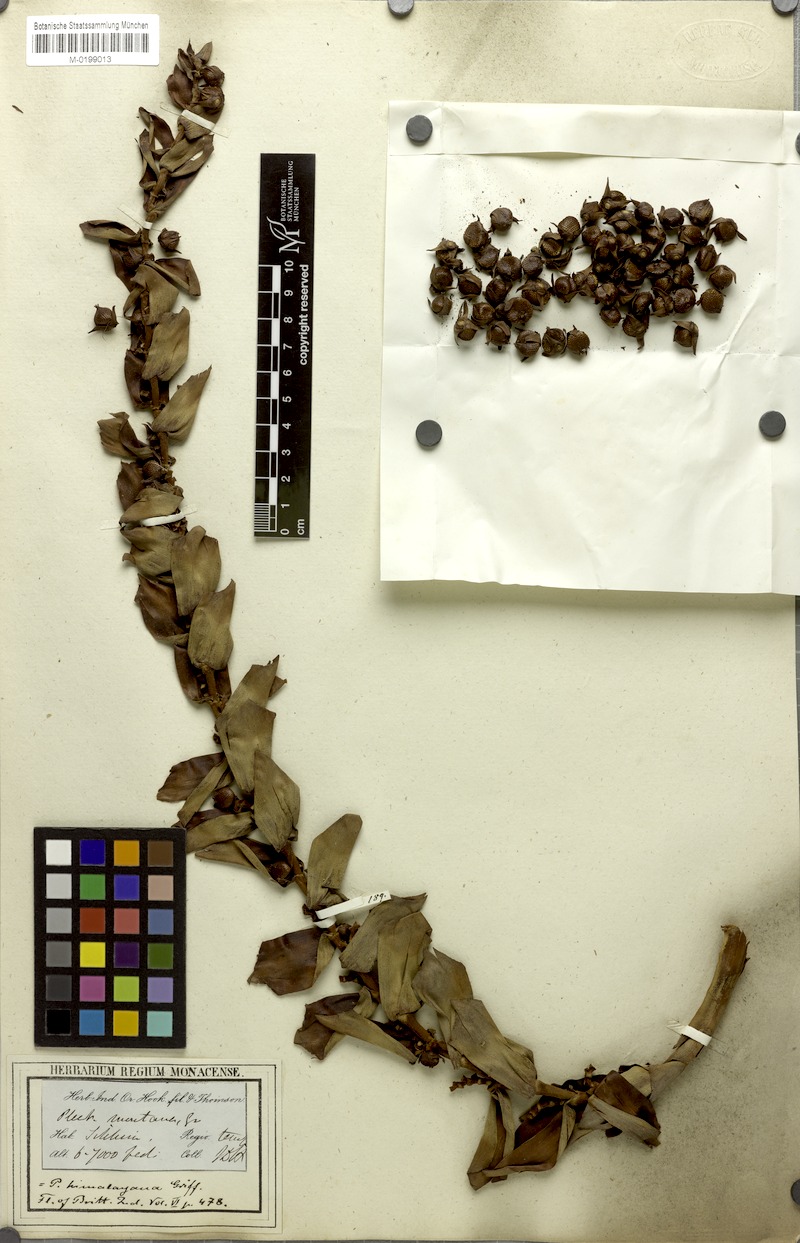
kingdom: Plantae
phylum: Tracheophyta
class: Liliopsida
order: Arecales
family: Arecaceae
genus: Plectocomia
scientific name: Plectocomia himalayana
